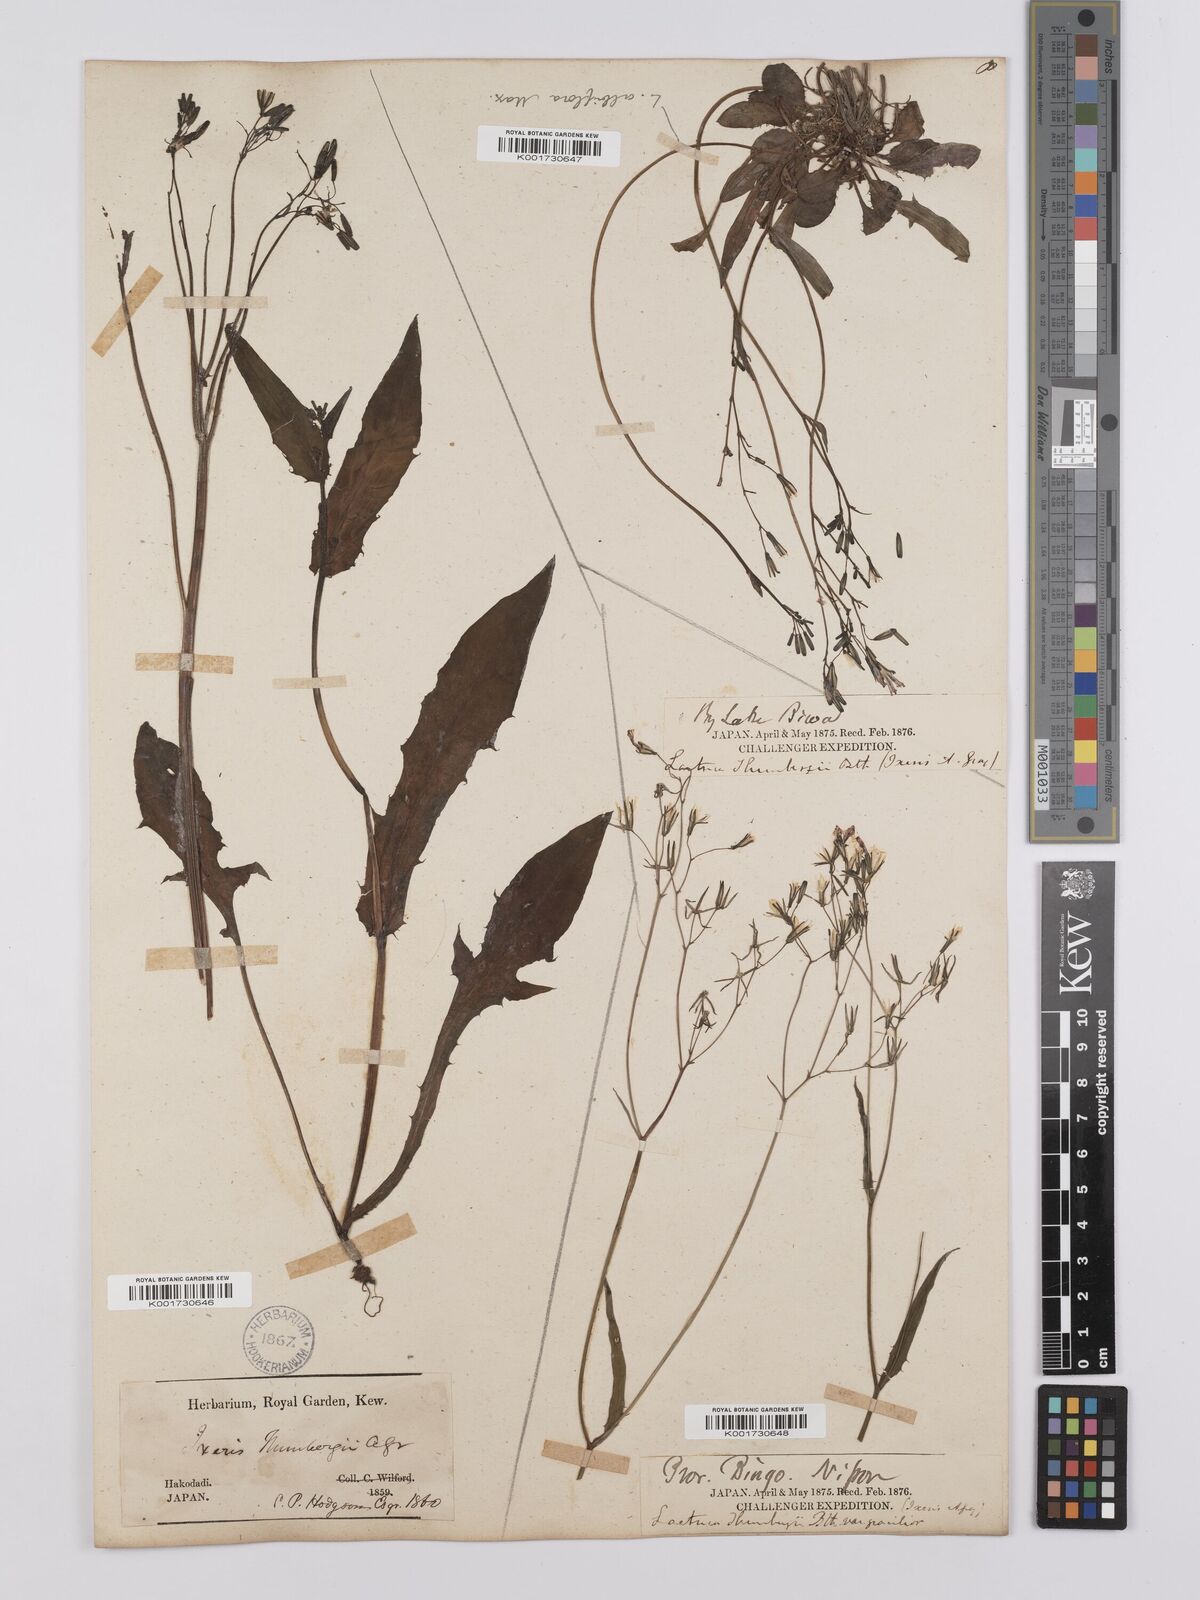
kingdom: Plantae
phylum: Tracheophyta
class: Magnoliopsida
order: Asterales
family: Asteraceae
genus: Ixeridium
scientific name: Ixeridium dentatum
